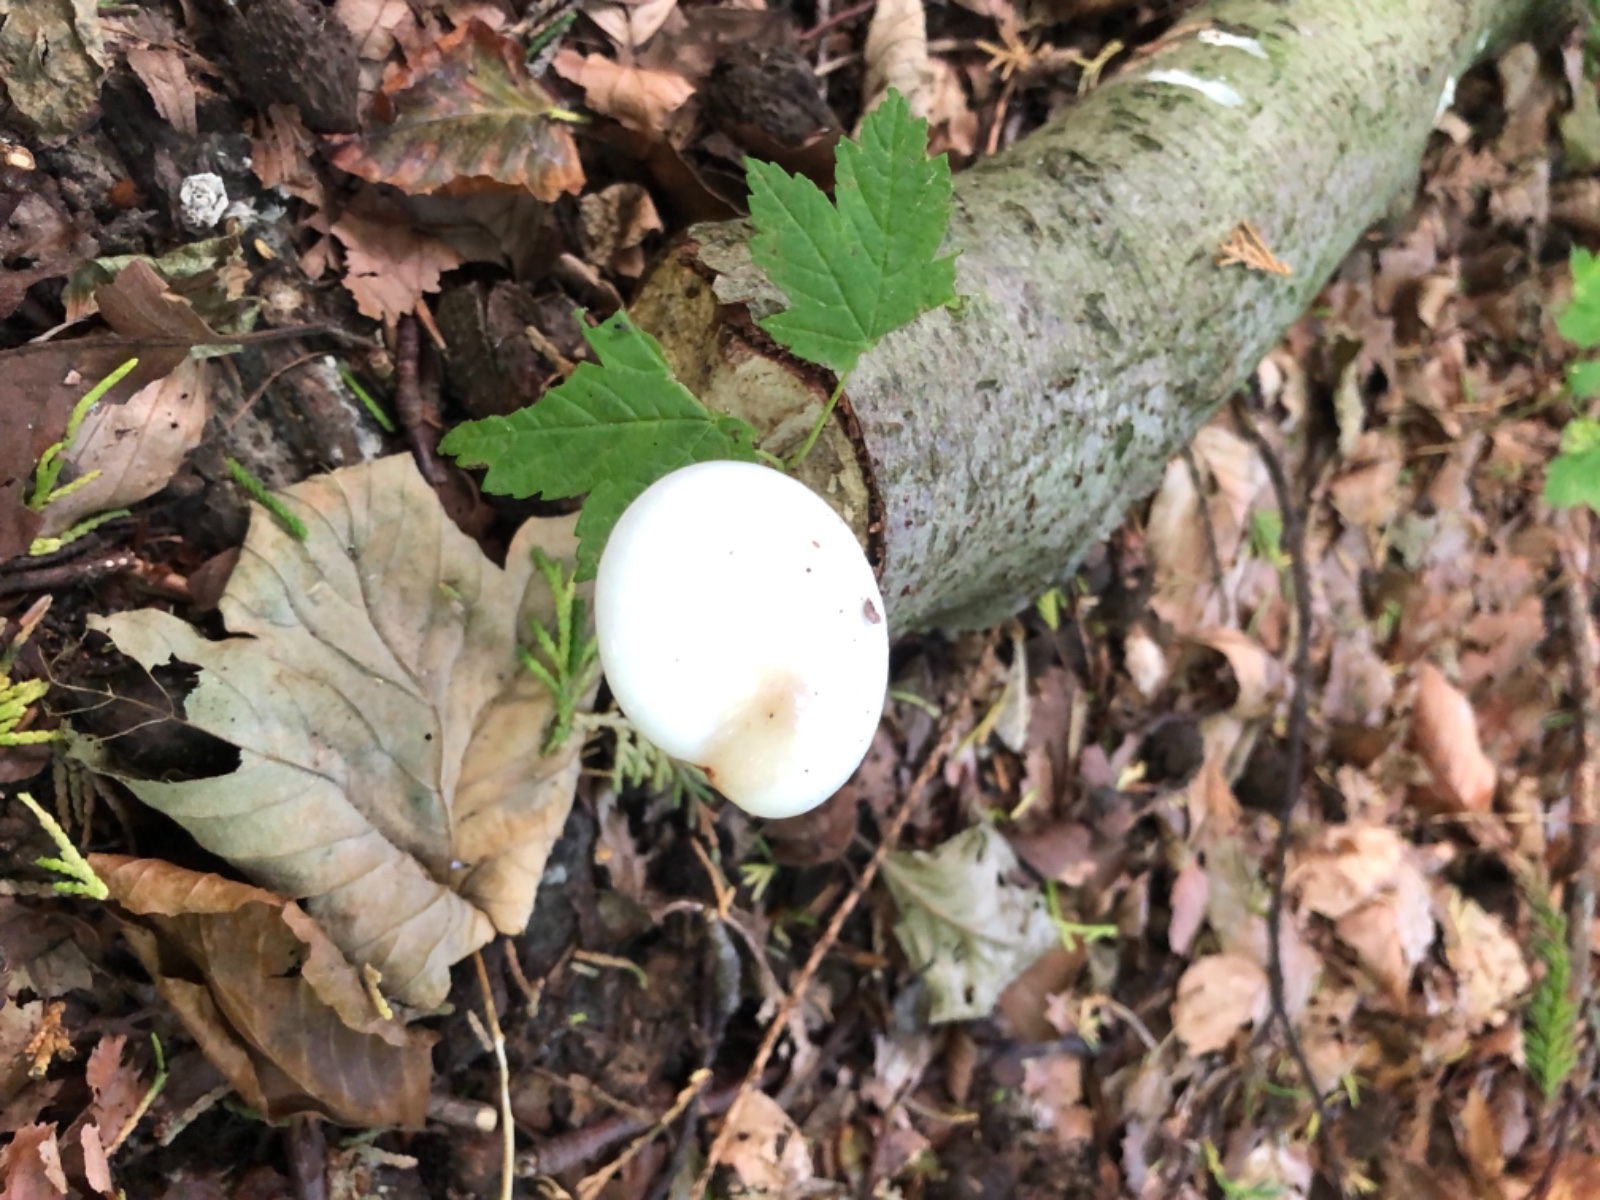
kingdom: Fungi
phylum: Basidiomycota
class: Agaricomycetes
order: Agaricales
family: Physalacriaceae
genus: Mucidula
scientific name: Mucidula mucida
